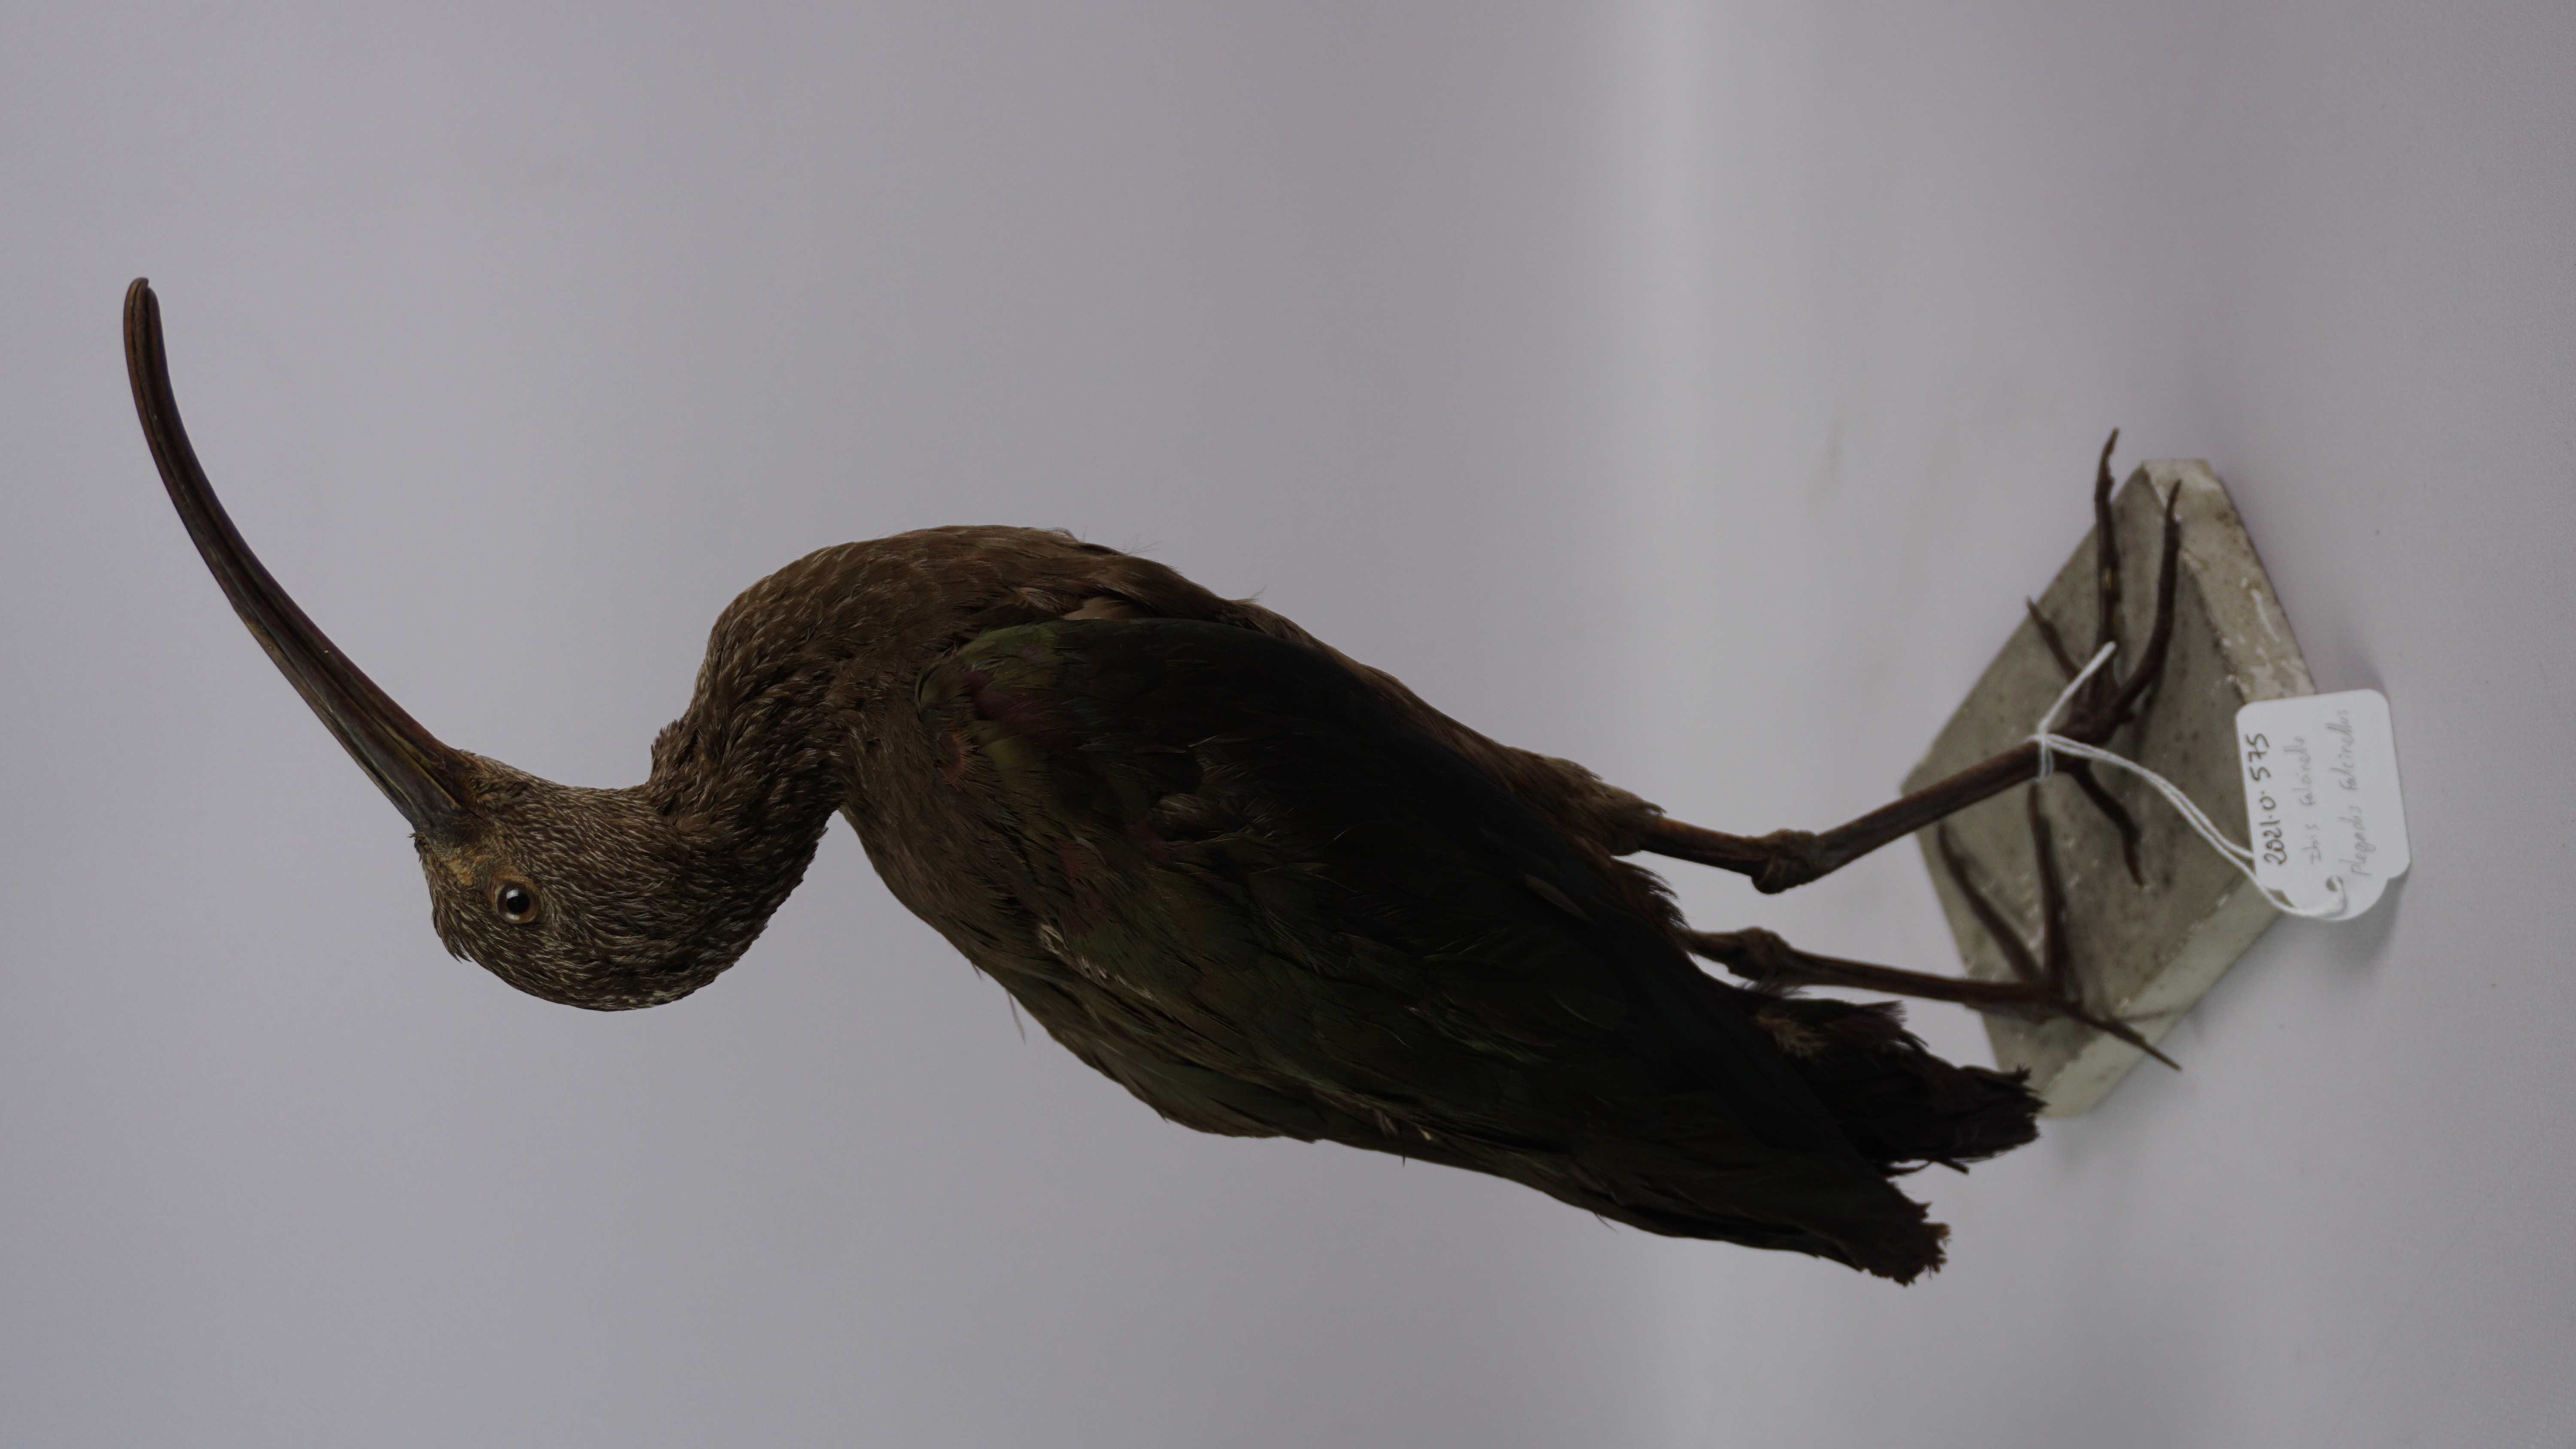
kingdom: Animalia
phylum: Chordata
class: Aves
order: Pelecaniformes
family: Threskiornithidae
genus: Plegadis
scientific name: Plegadis falcinellus
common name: Glossy ibis
